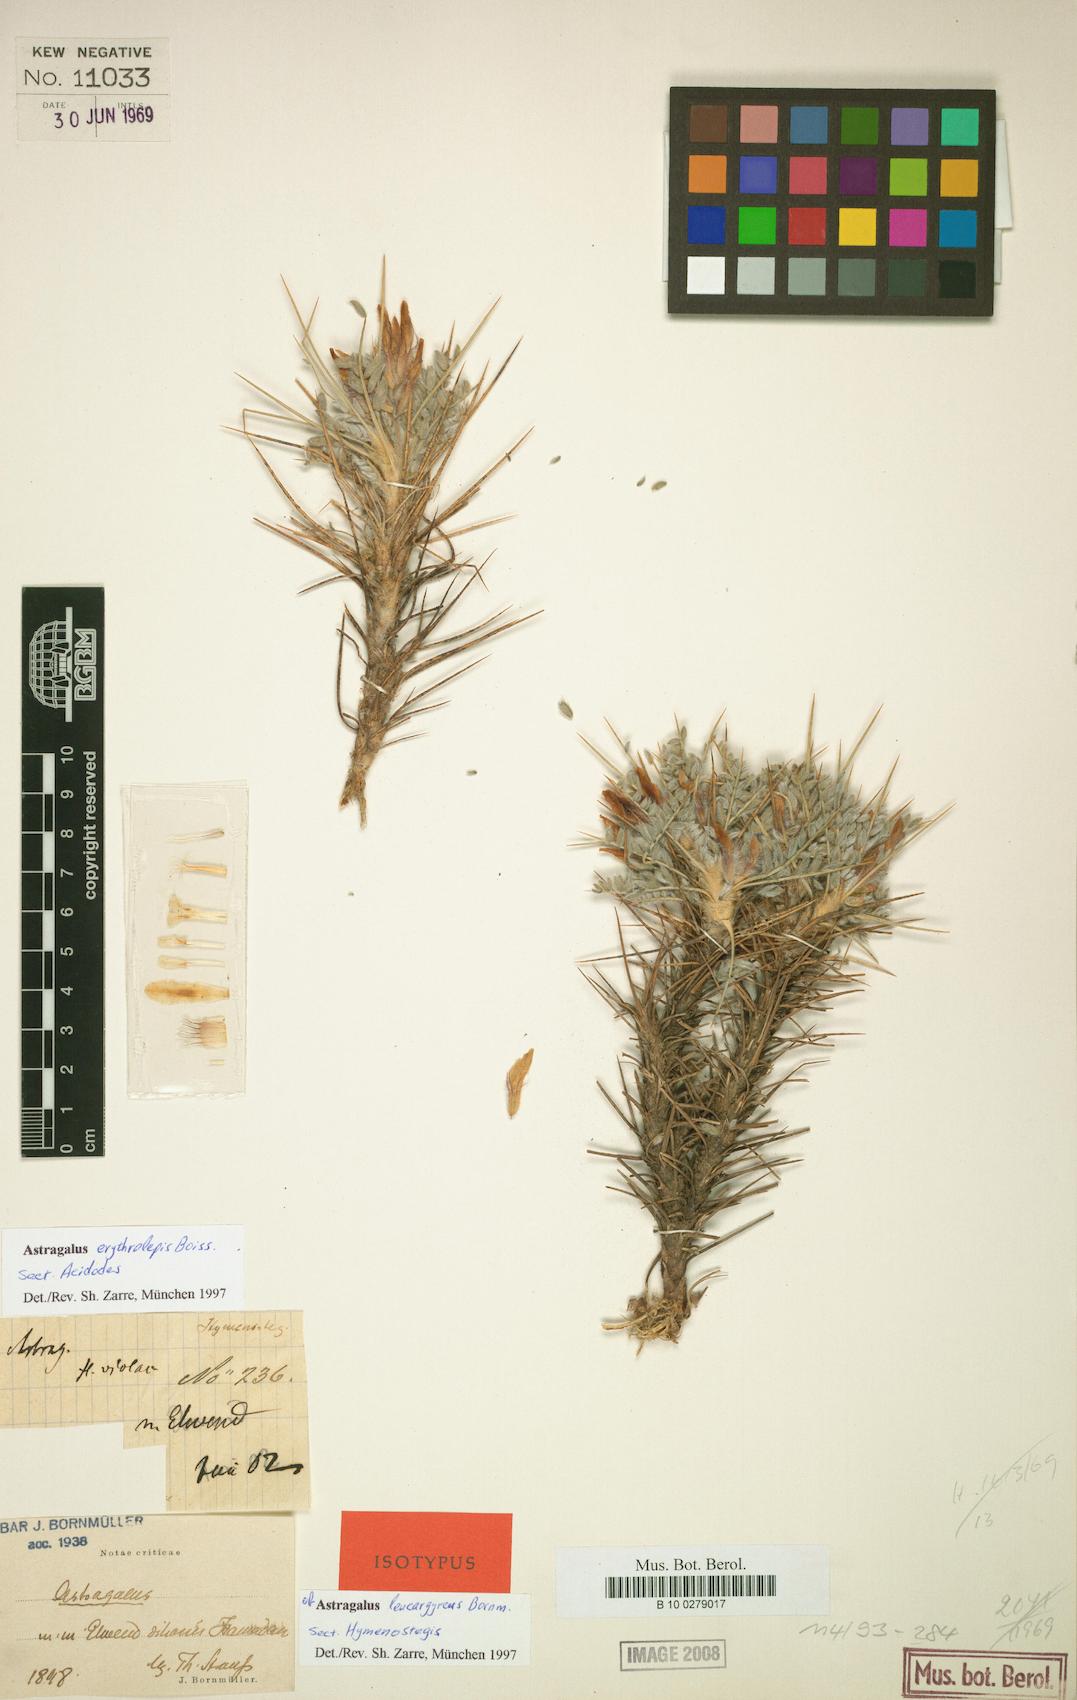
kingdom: Plantae
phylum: Tracheophyta
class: Magnoliopsida
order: Fabales
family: Fabaceae
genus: Astragalus
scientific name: Astragalus erythrolepis
